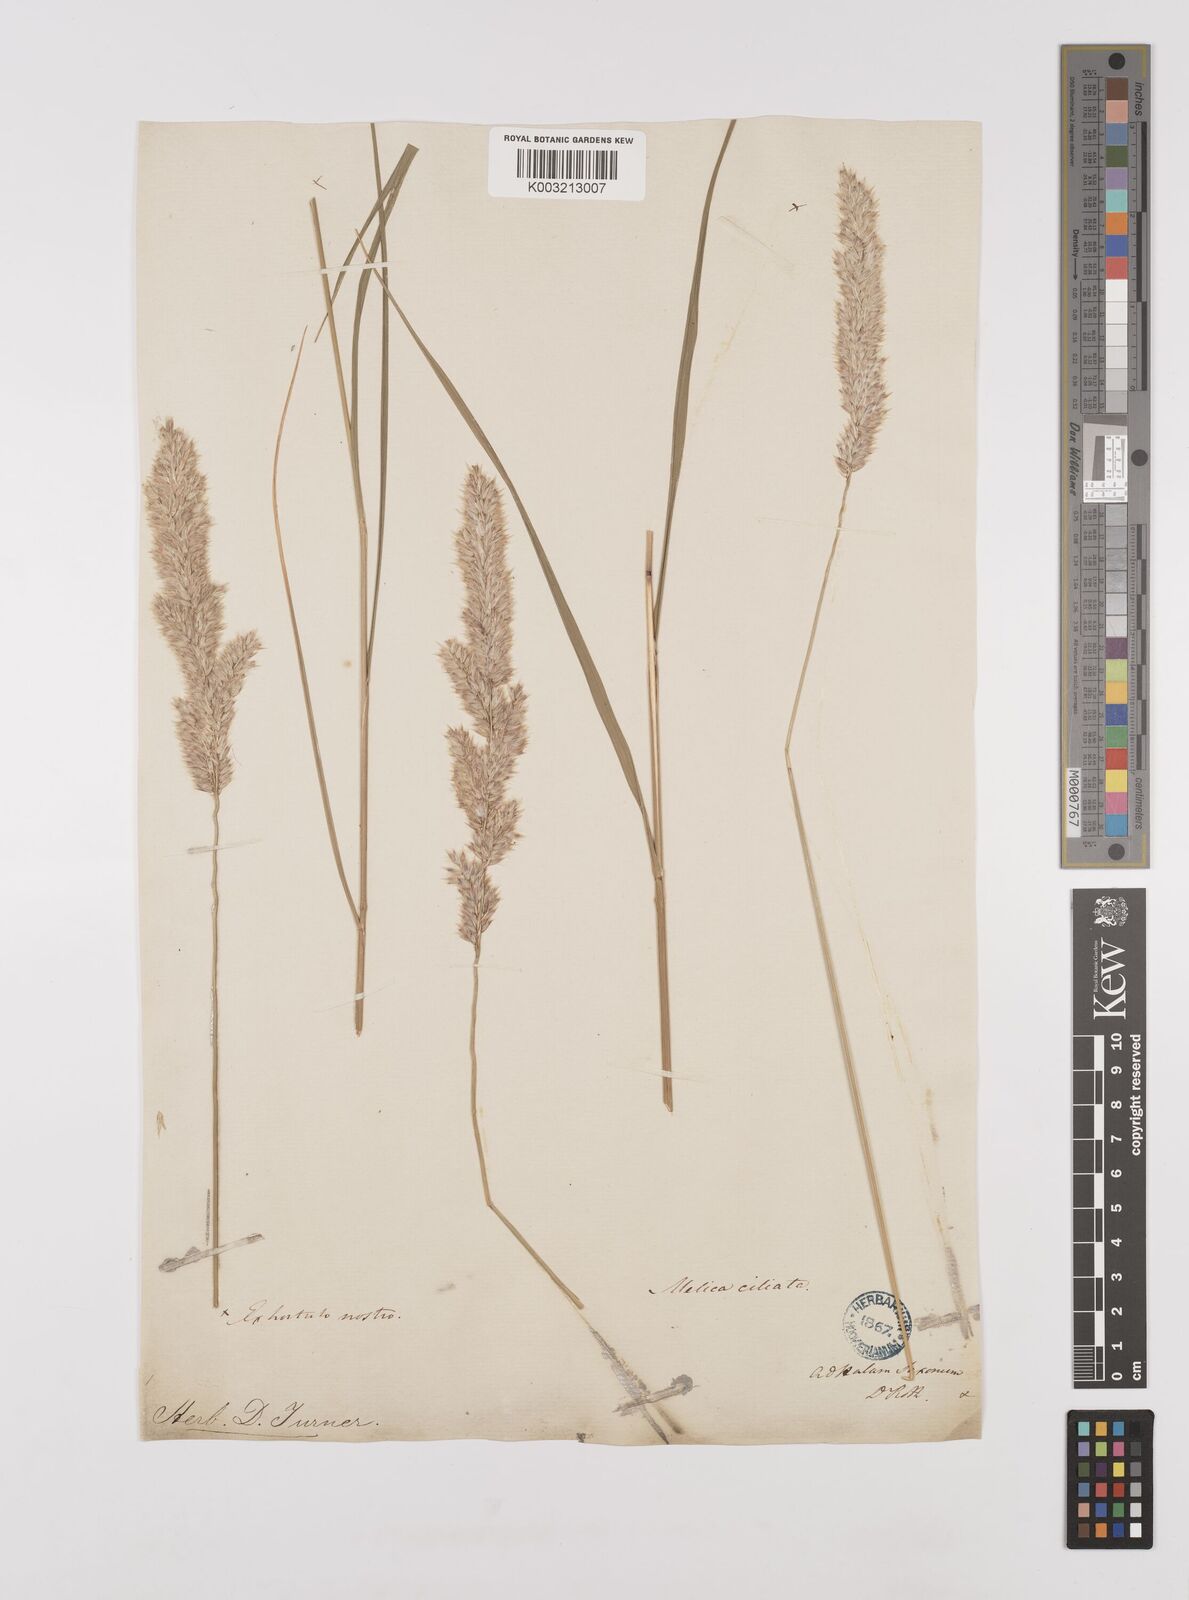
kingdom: Plantae
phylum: Tracheophyta
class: Liliopsida
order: Poales
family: Poaceae
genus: Melica
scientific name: Melica ciliata
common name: Hairy melicgrass
